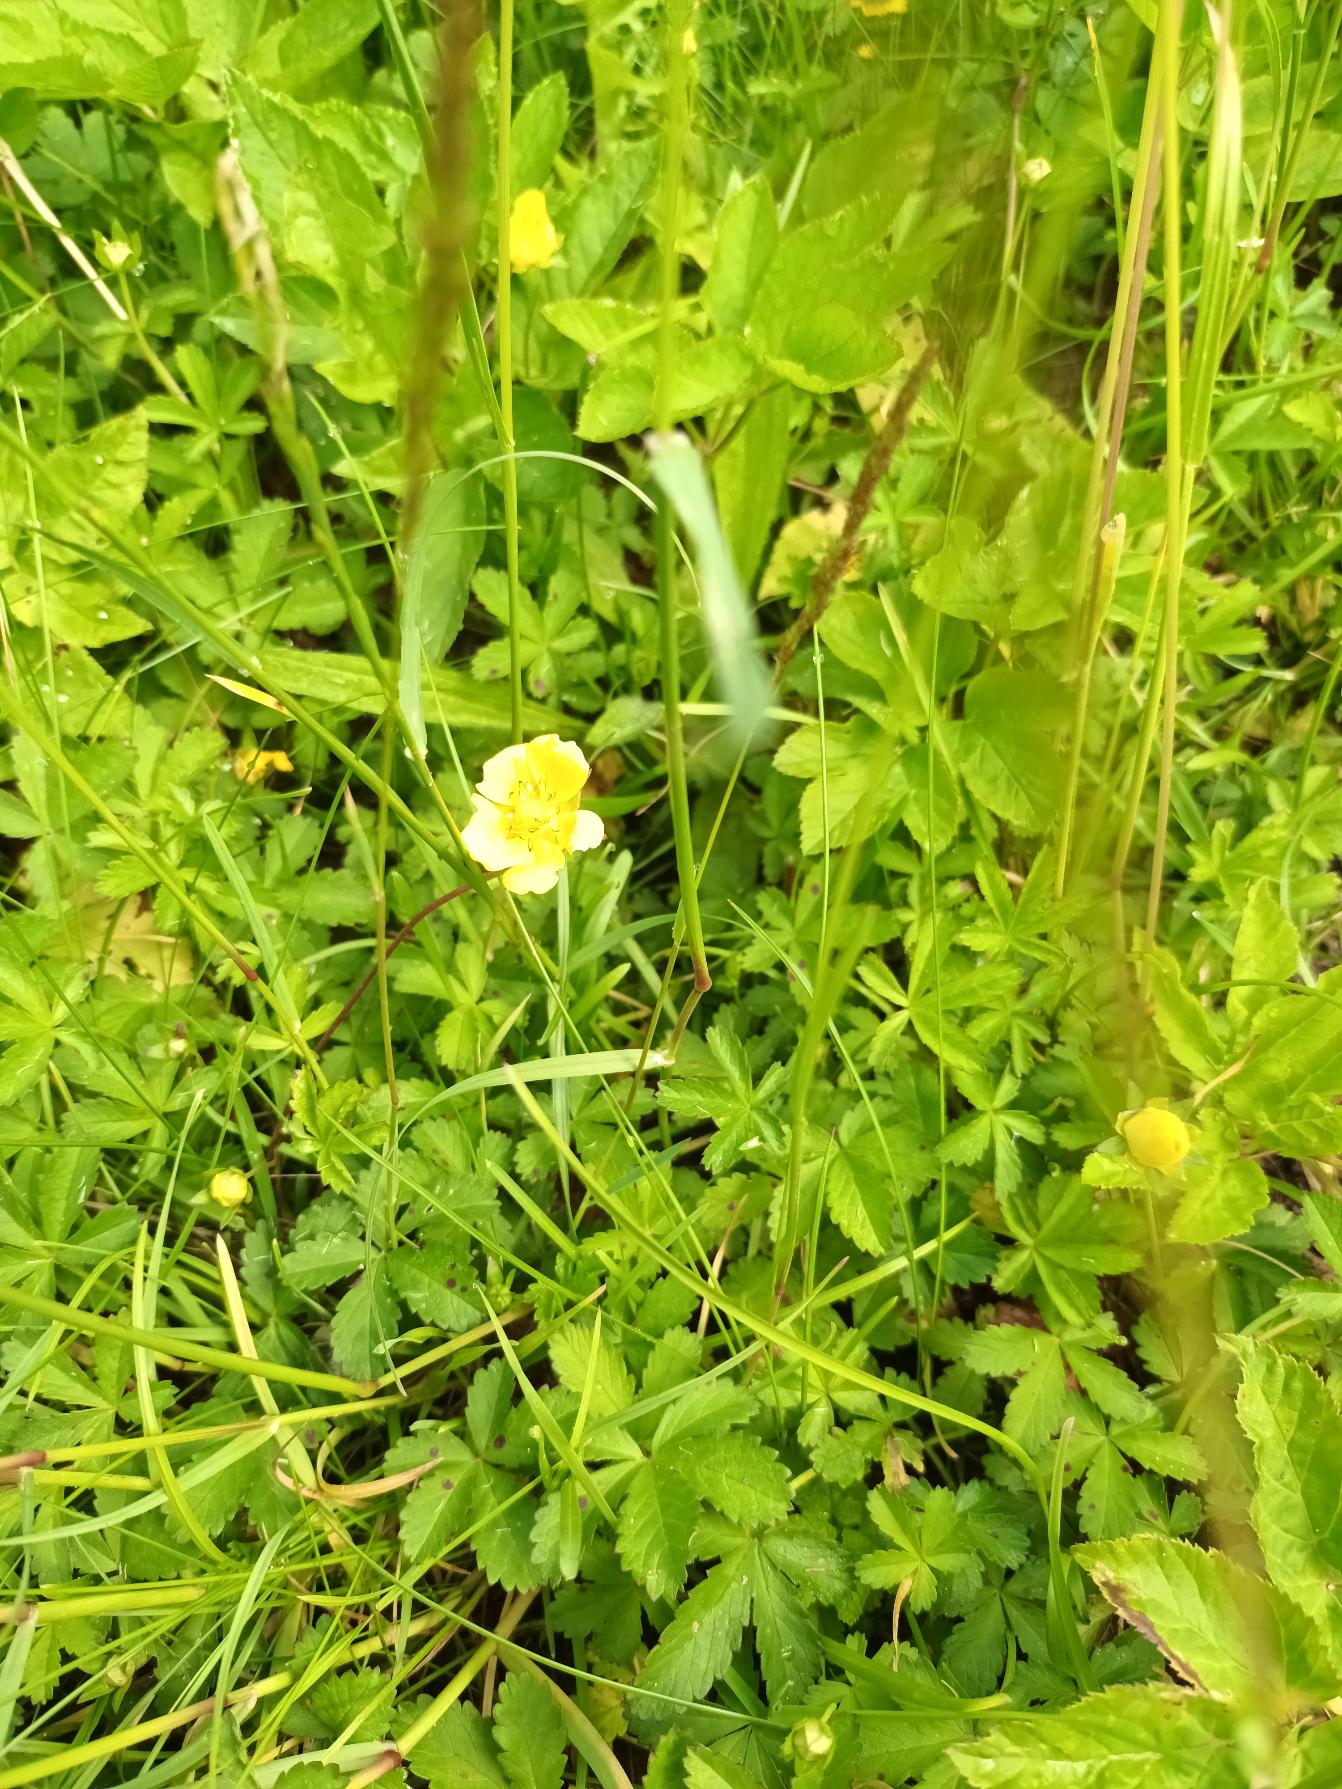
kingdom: Plantae
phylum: Tracheophyta
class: Magnoliopsida
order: Rosales
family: Rosaceae
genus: Potentilla
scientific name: Potentilla reptans
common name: Krybende potentil
